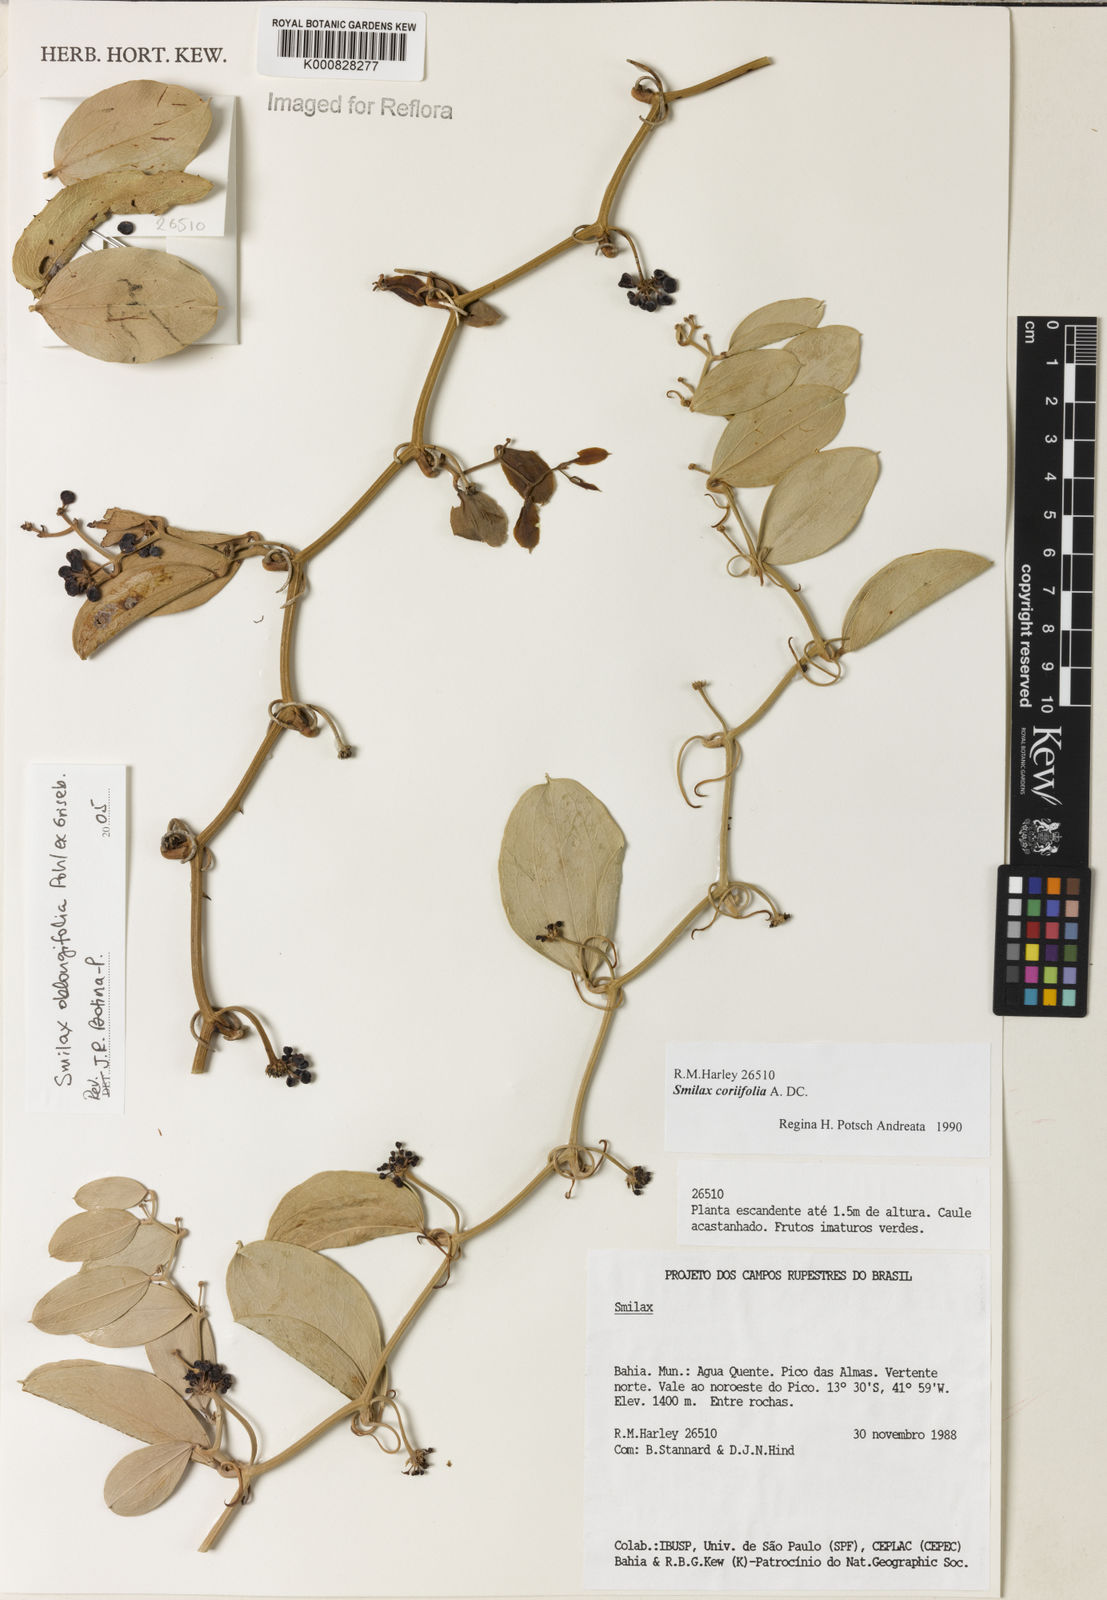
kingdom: Plantae
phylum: Tracheophyta
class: Liliopsida
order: Liliales
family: Smilacaceae
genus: Smilax
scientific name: Smilax oblongifolia
